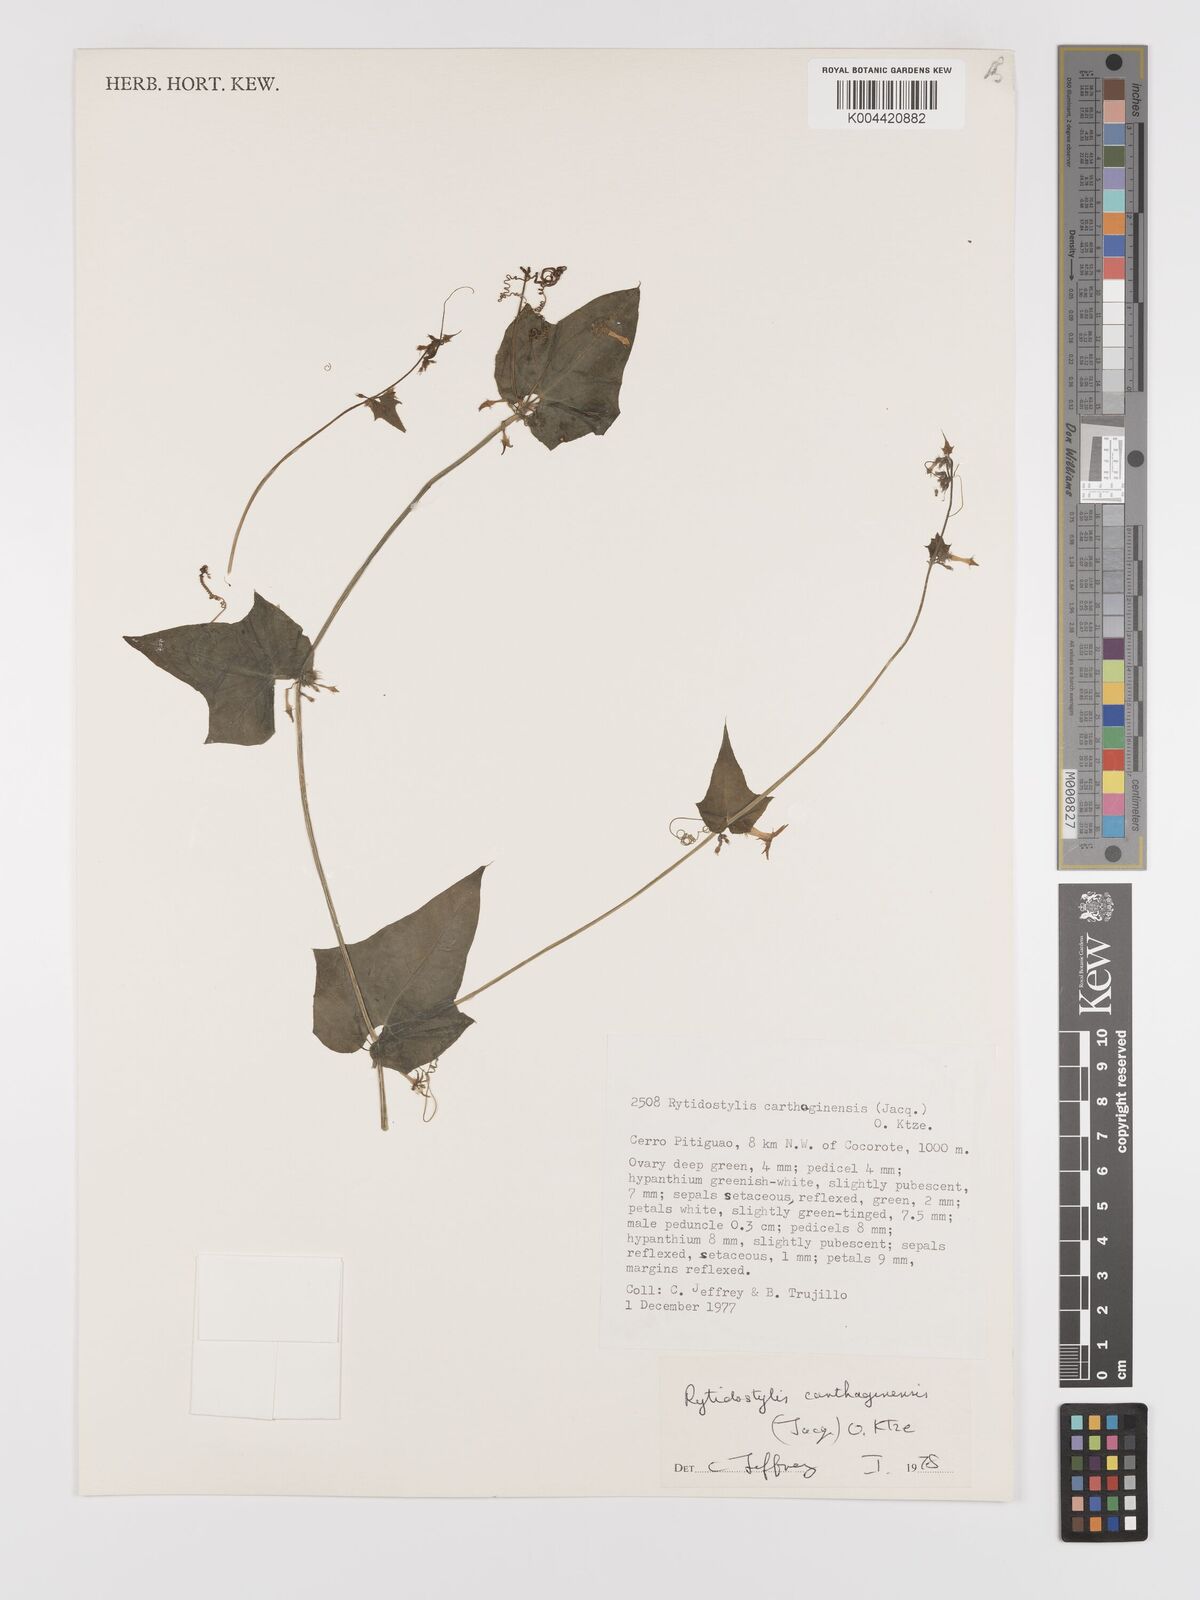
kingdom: Plantae
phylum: Tracheophyta
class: Magnoliopsida
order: Cucurbitales
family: Cucurbitaceae
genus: Cyclanthera
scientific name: Cyclanthera carthagenensis
